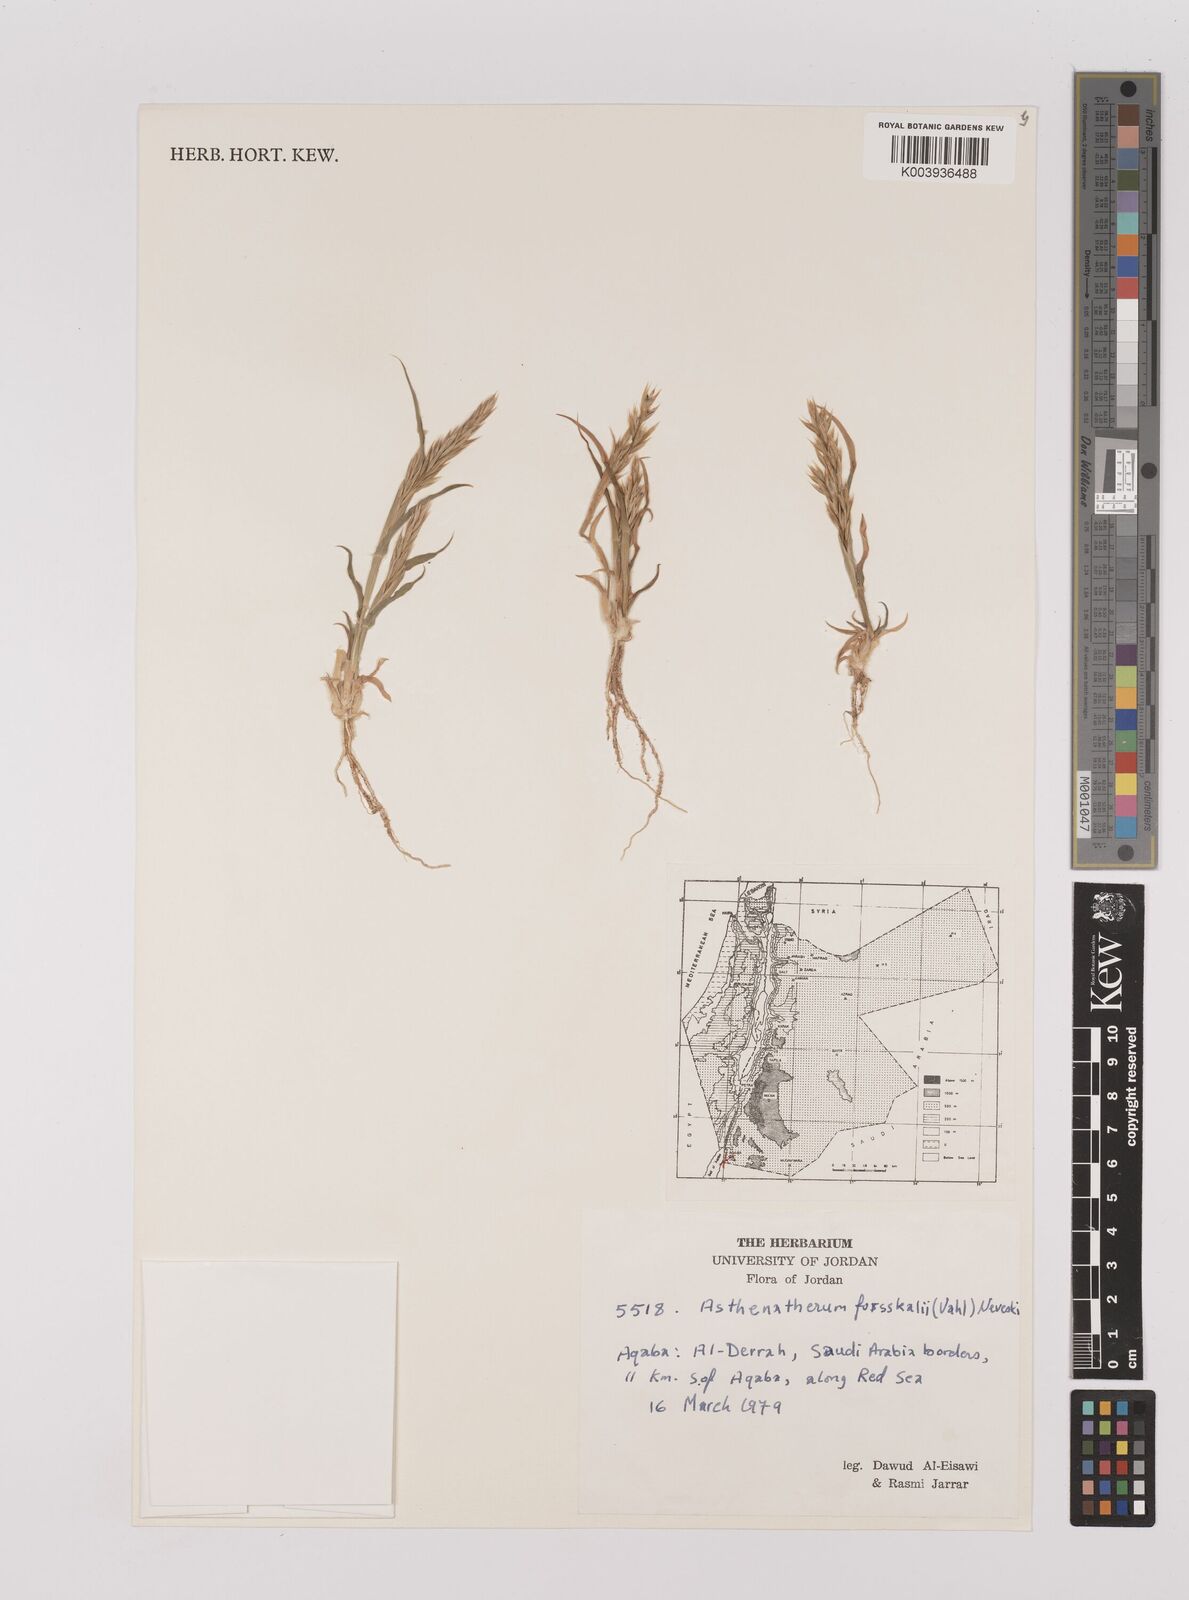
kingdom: Plantae
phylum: Tracheophyta
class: Liliopsida
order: Poales
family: Poaceae
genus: Centropodia
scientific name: Centropodia forskaolii
